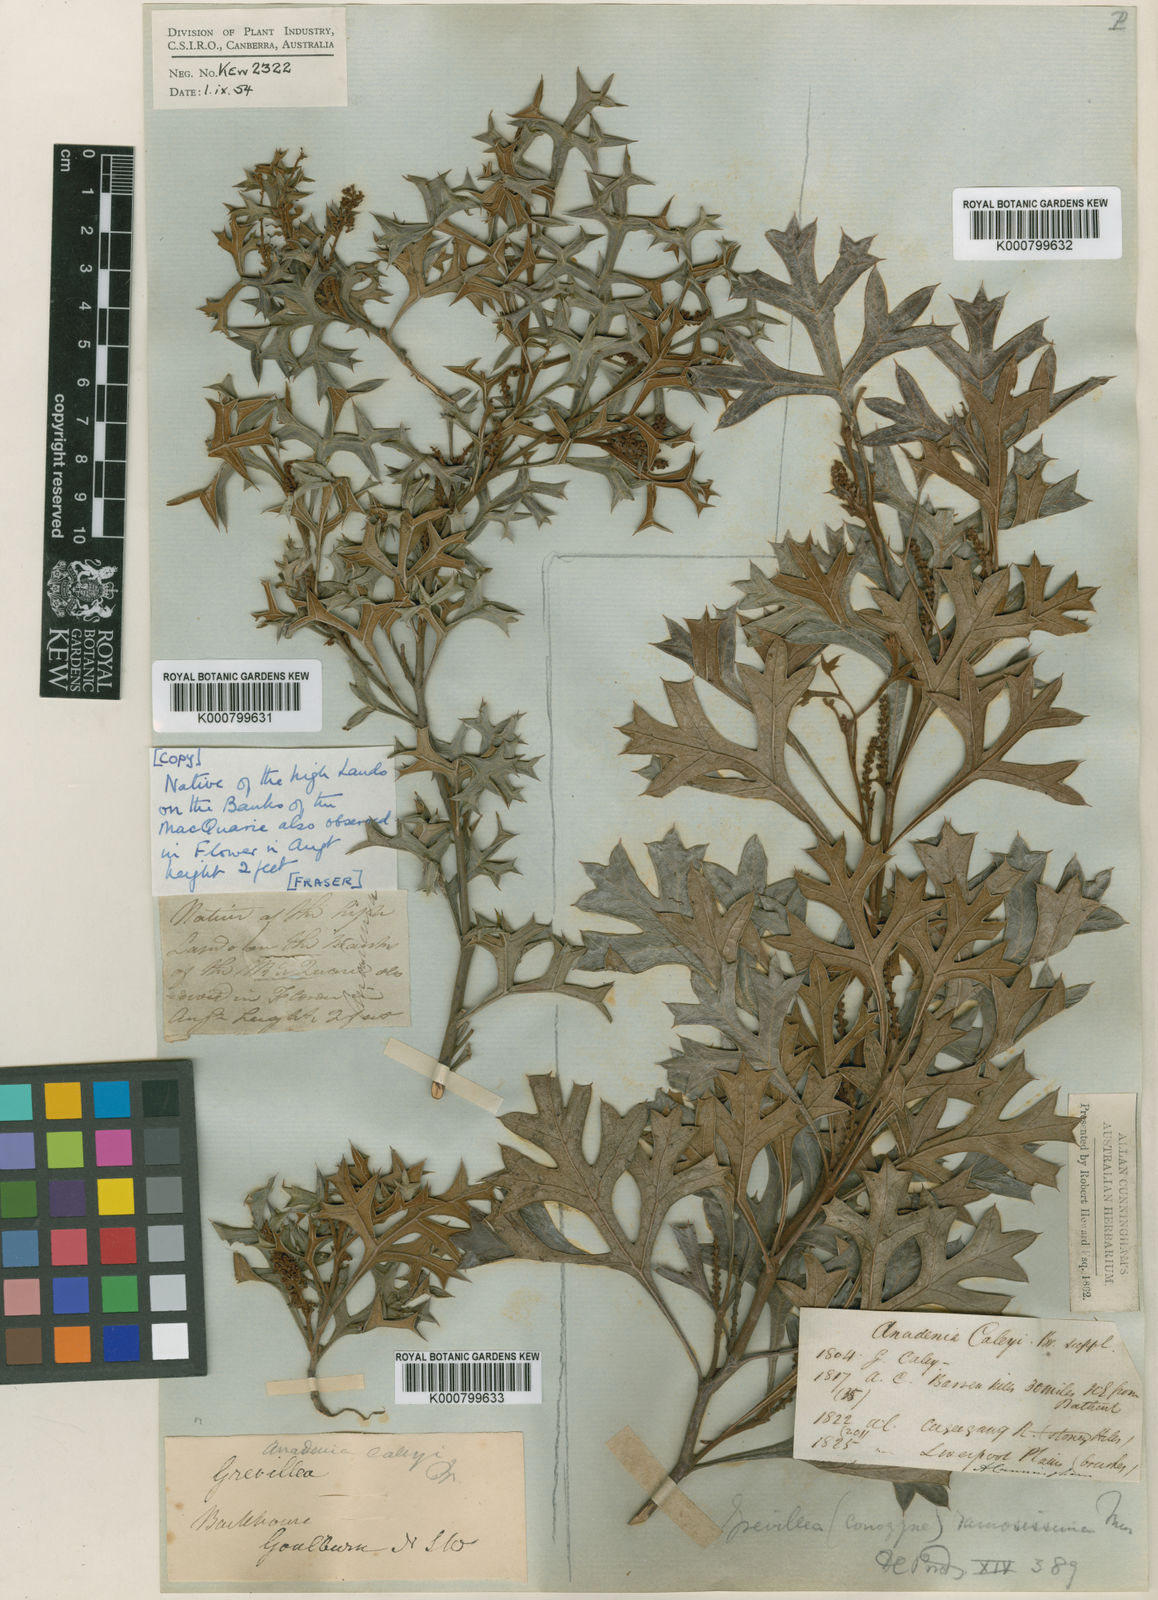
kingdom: Plantae
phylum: Tracheophyta
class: Magnoliopsida
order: Proteales
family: Proteaceae
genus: Grevillea
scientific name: Grevillea ramosissima
